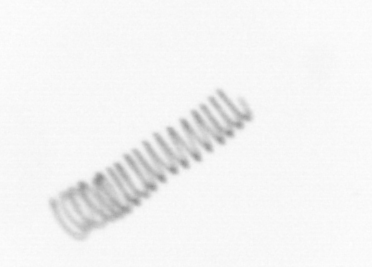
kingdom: Chromista
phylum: Ochrophyta
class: Bacillariophyceae
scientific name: Bacillariophyceae
